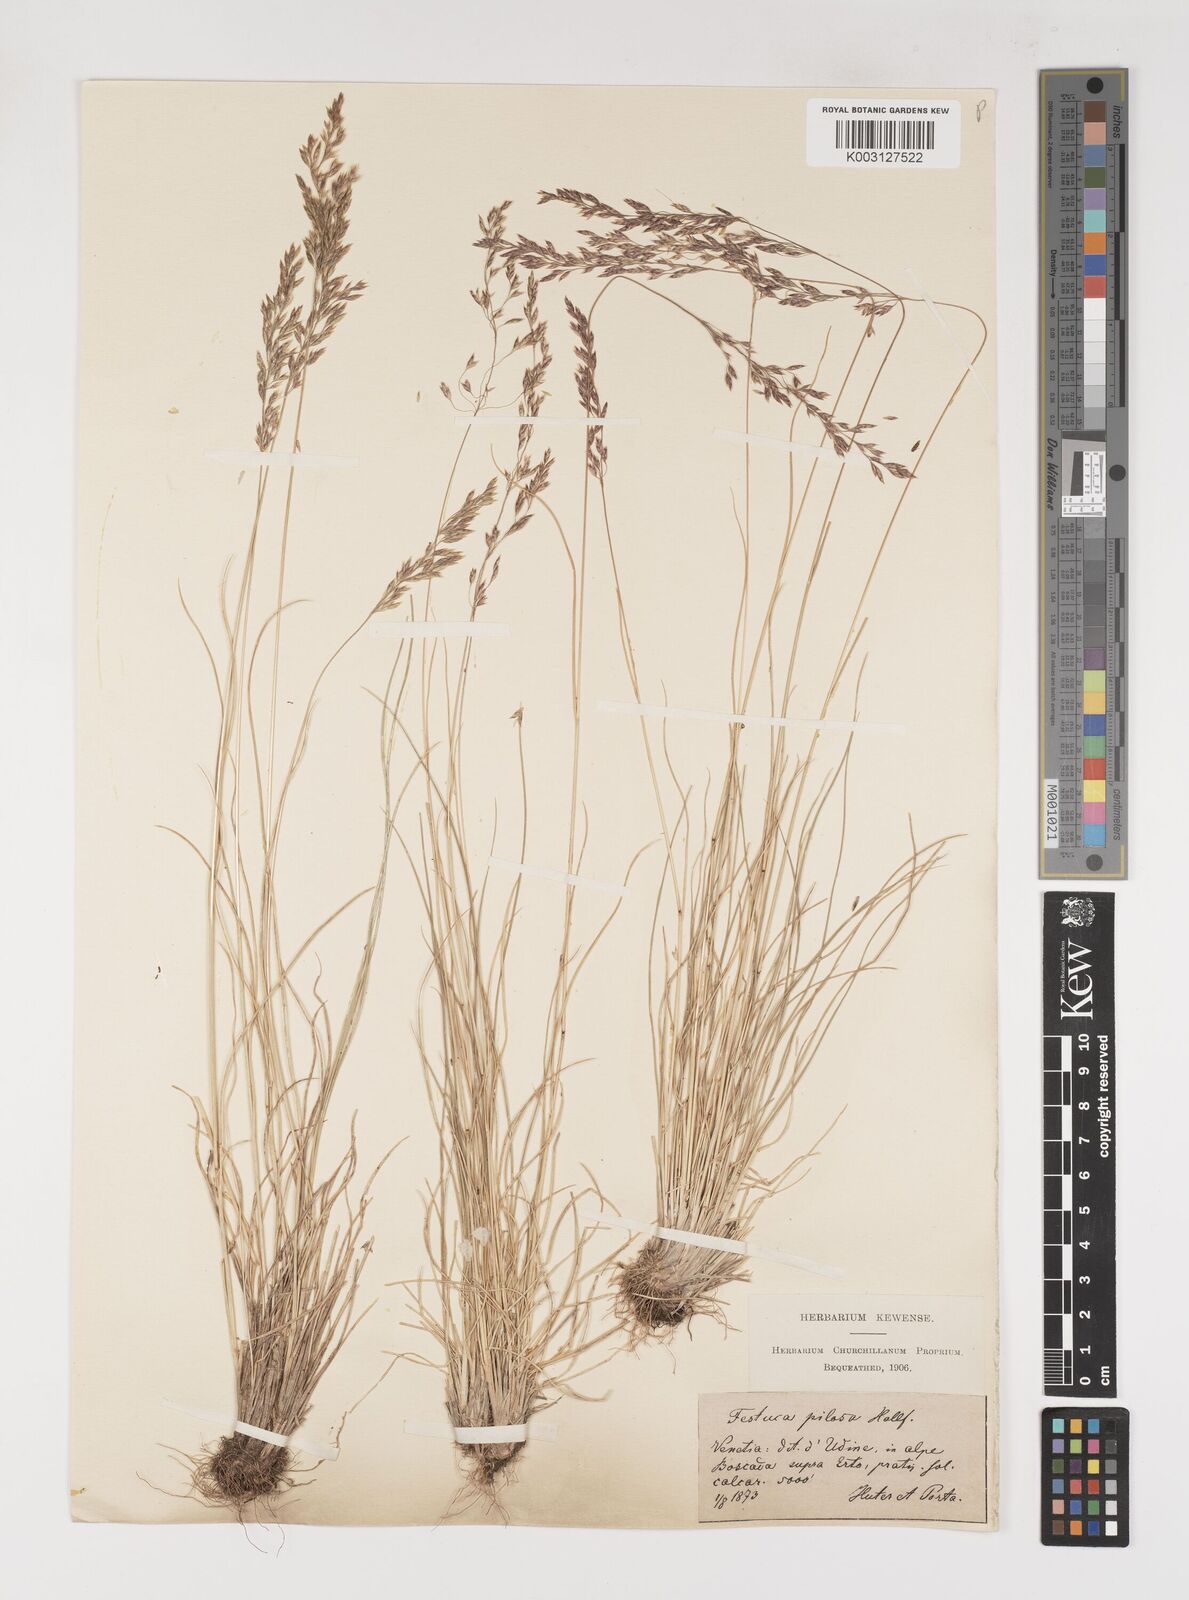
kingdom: Plantae
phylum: Tracheophyta
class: Liliopsida
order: Poales
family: Poaceae
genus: Bellardiochloa
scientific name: Bellardiochloa variegata
